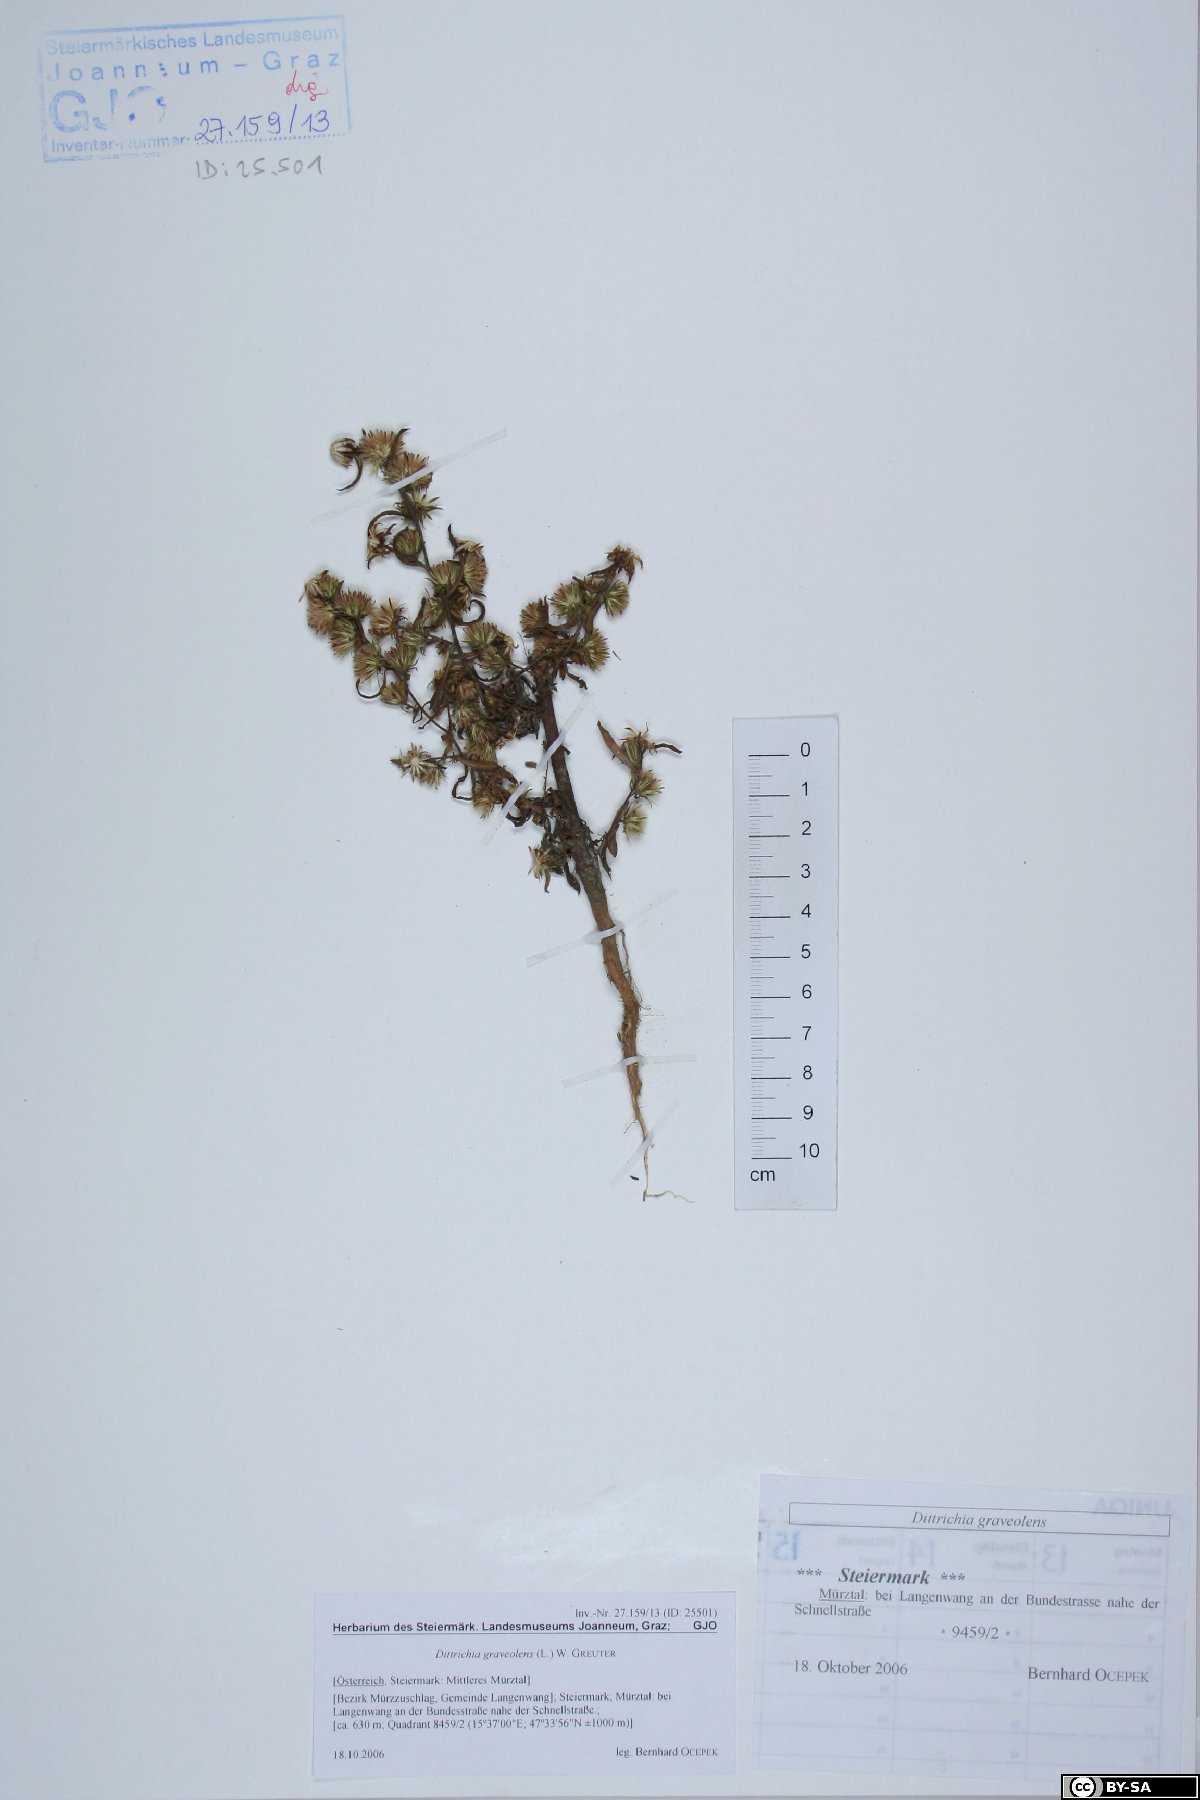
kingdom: Plantae
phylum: Tracheophyta
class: Magnoliopsida
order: Asterales
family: Asteraceae
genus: Dittrichia
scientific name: Dittrichia graveolens
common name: Stinking fleabane
